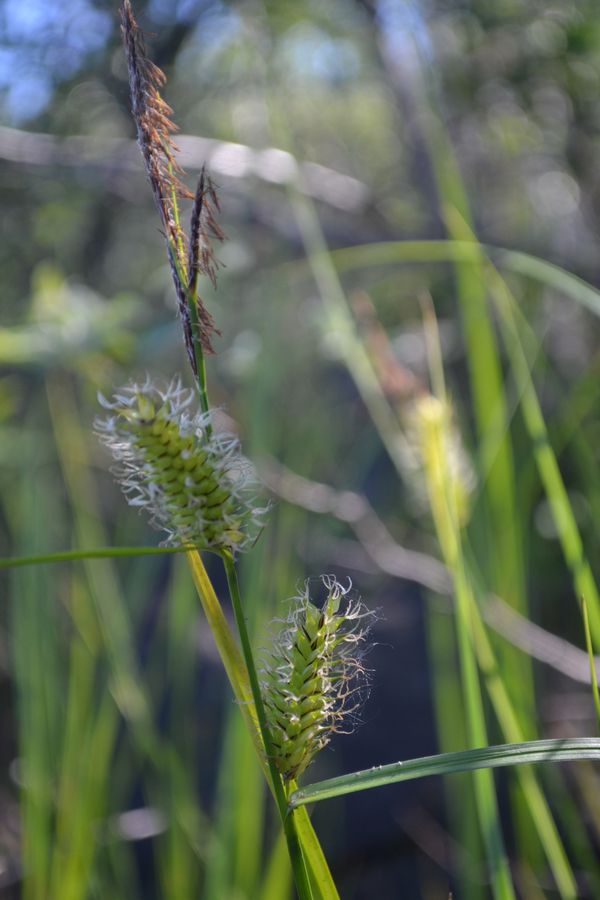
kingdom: Plantae
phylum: Tracheophyta
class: Liliopsida
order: Poales
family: Cyperaceae
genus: Carex
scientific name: Carex rostrata
